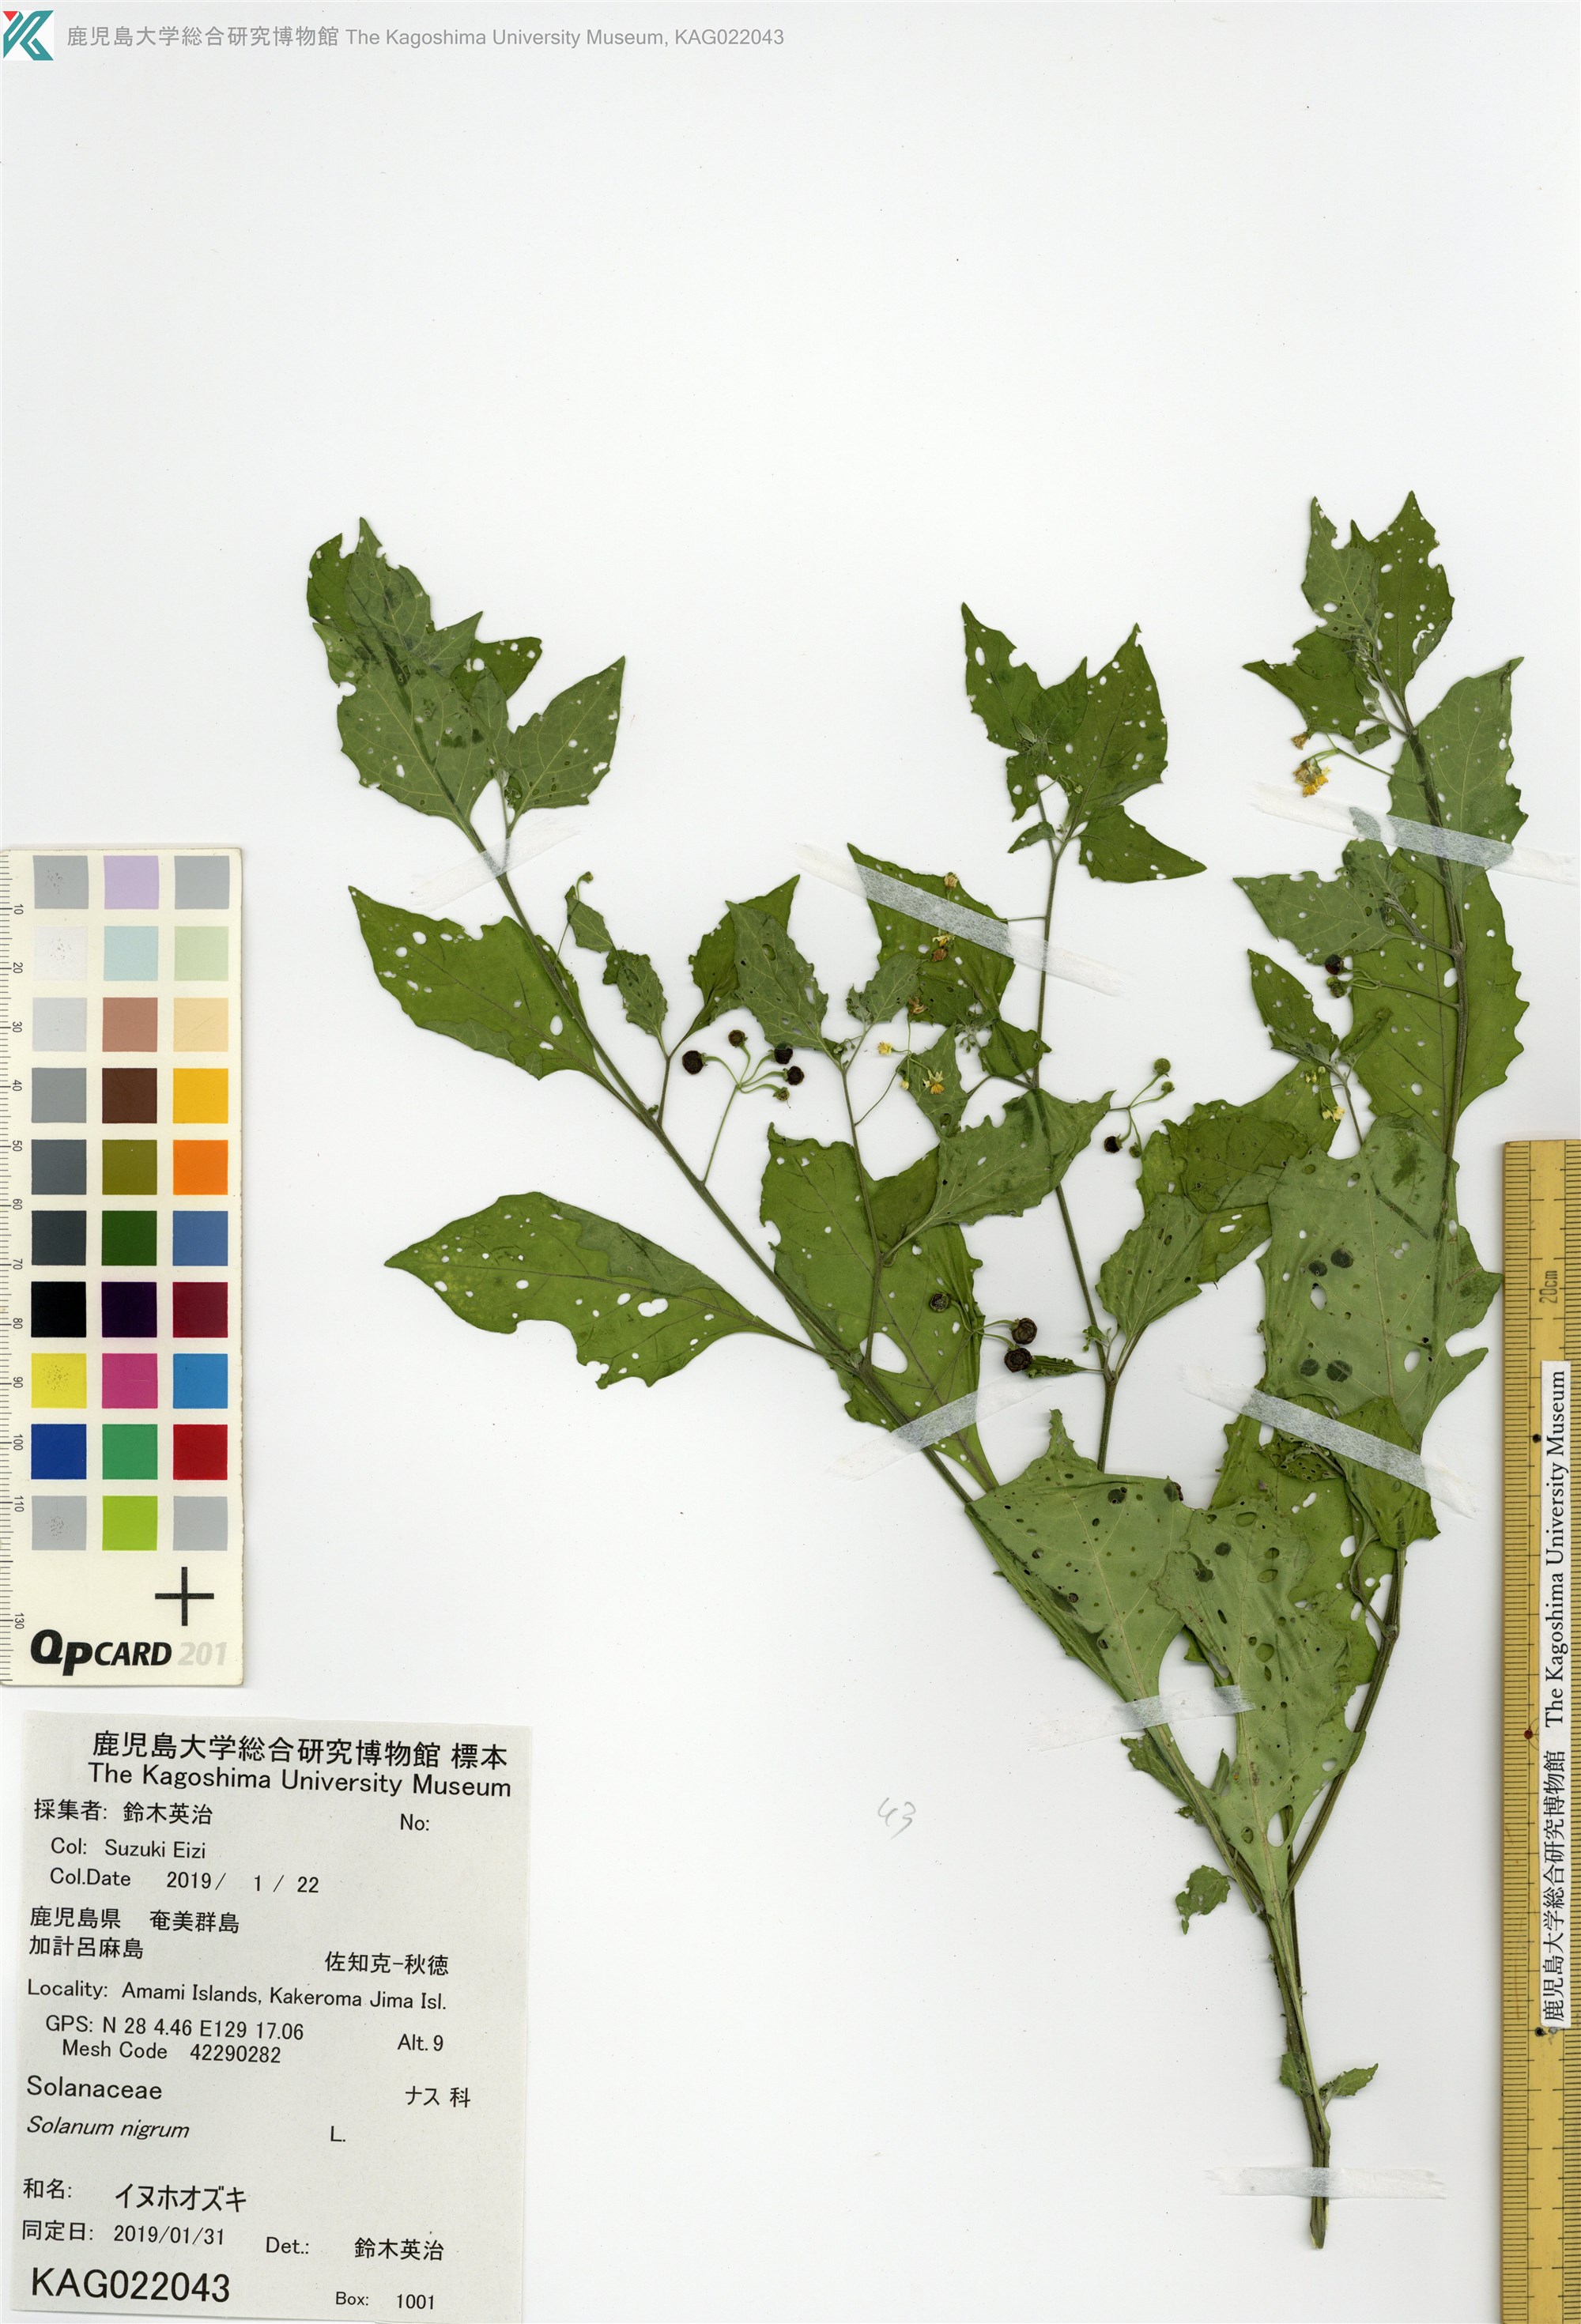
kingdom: Plantae
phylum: Tracheophyta
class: Magnoliopsida
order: Solanales
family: Solanaceae
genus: Solanum
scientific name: Solanum americanum
